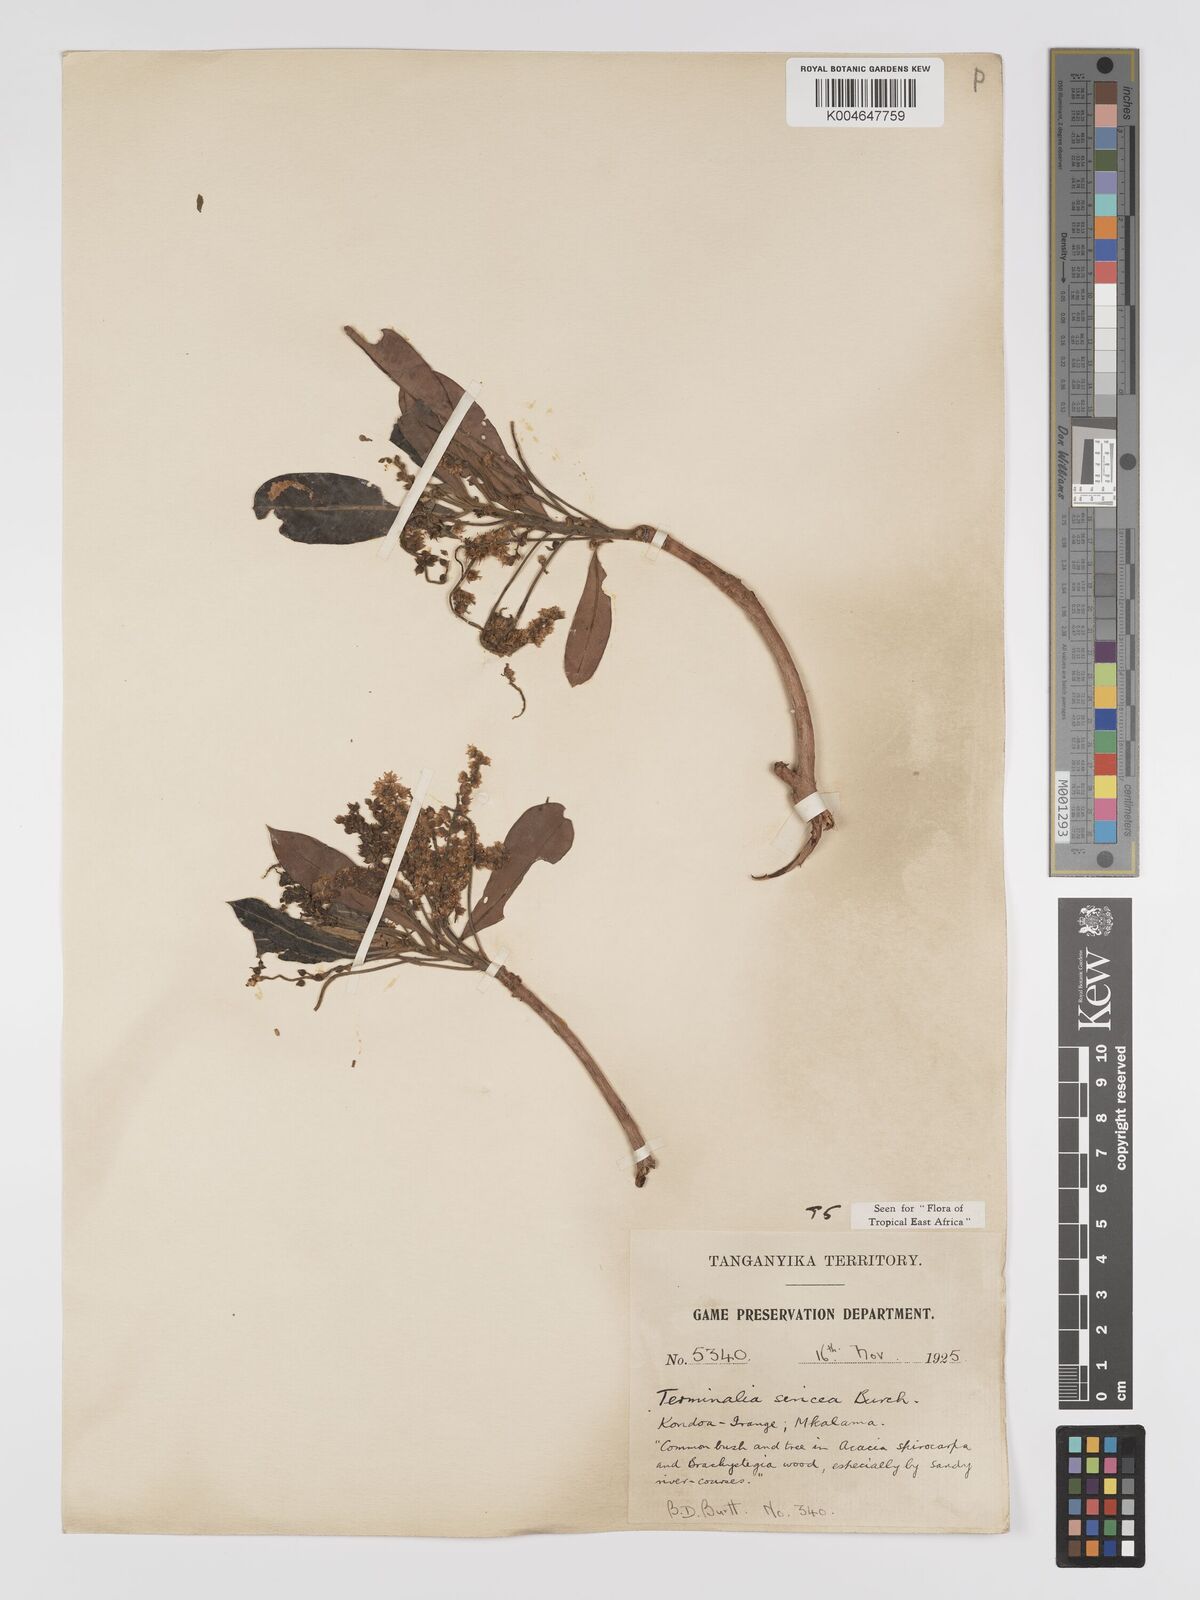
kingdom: Plantae
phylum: Tracheophyta
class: Magnoliopsida
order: Myrtales
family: Combretaceae
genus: Terminalia
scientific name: Terminalia
